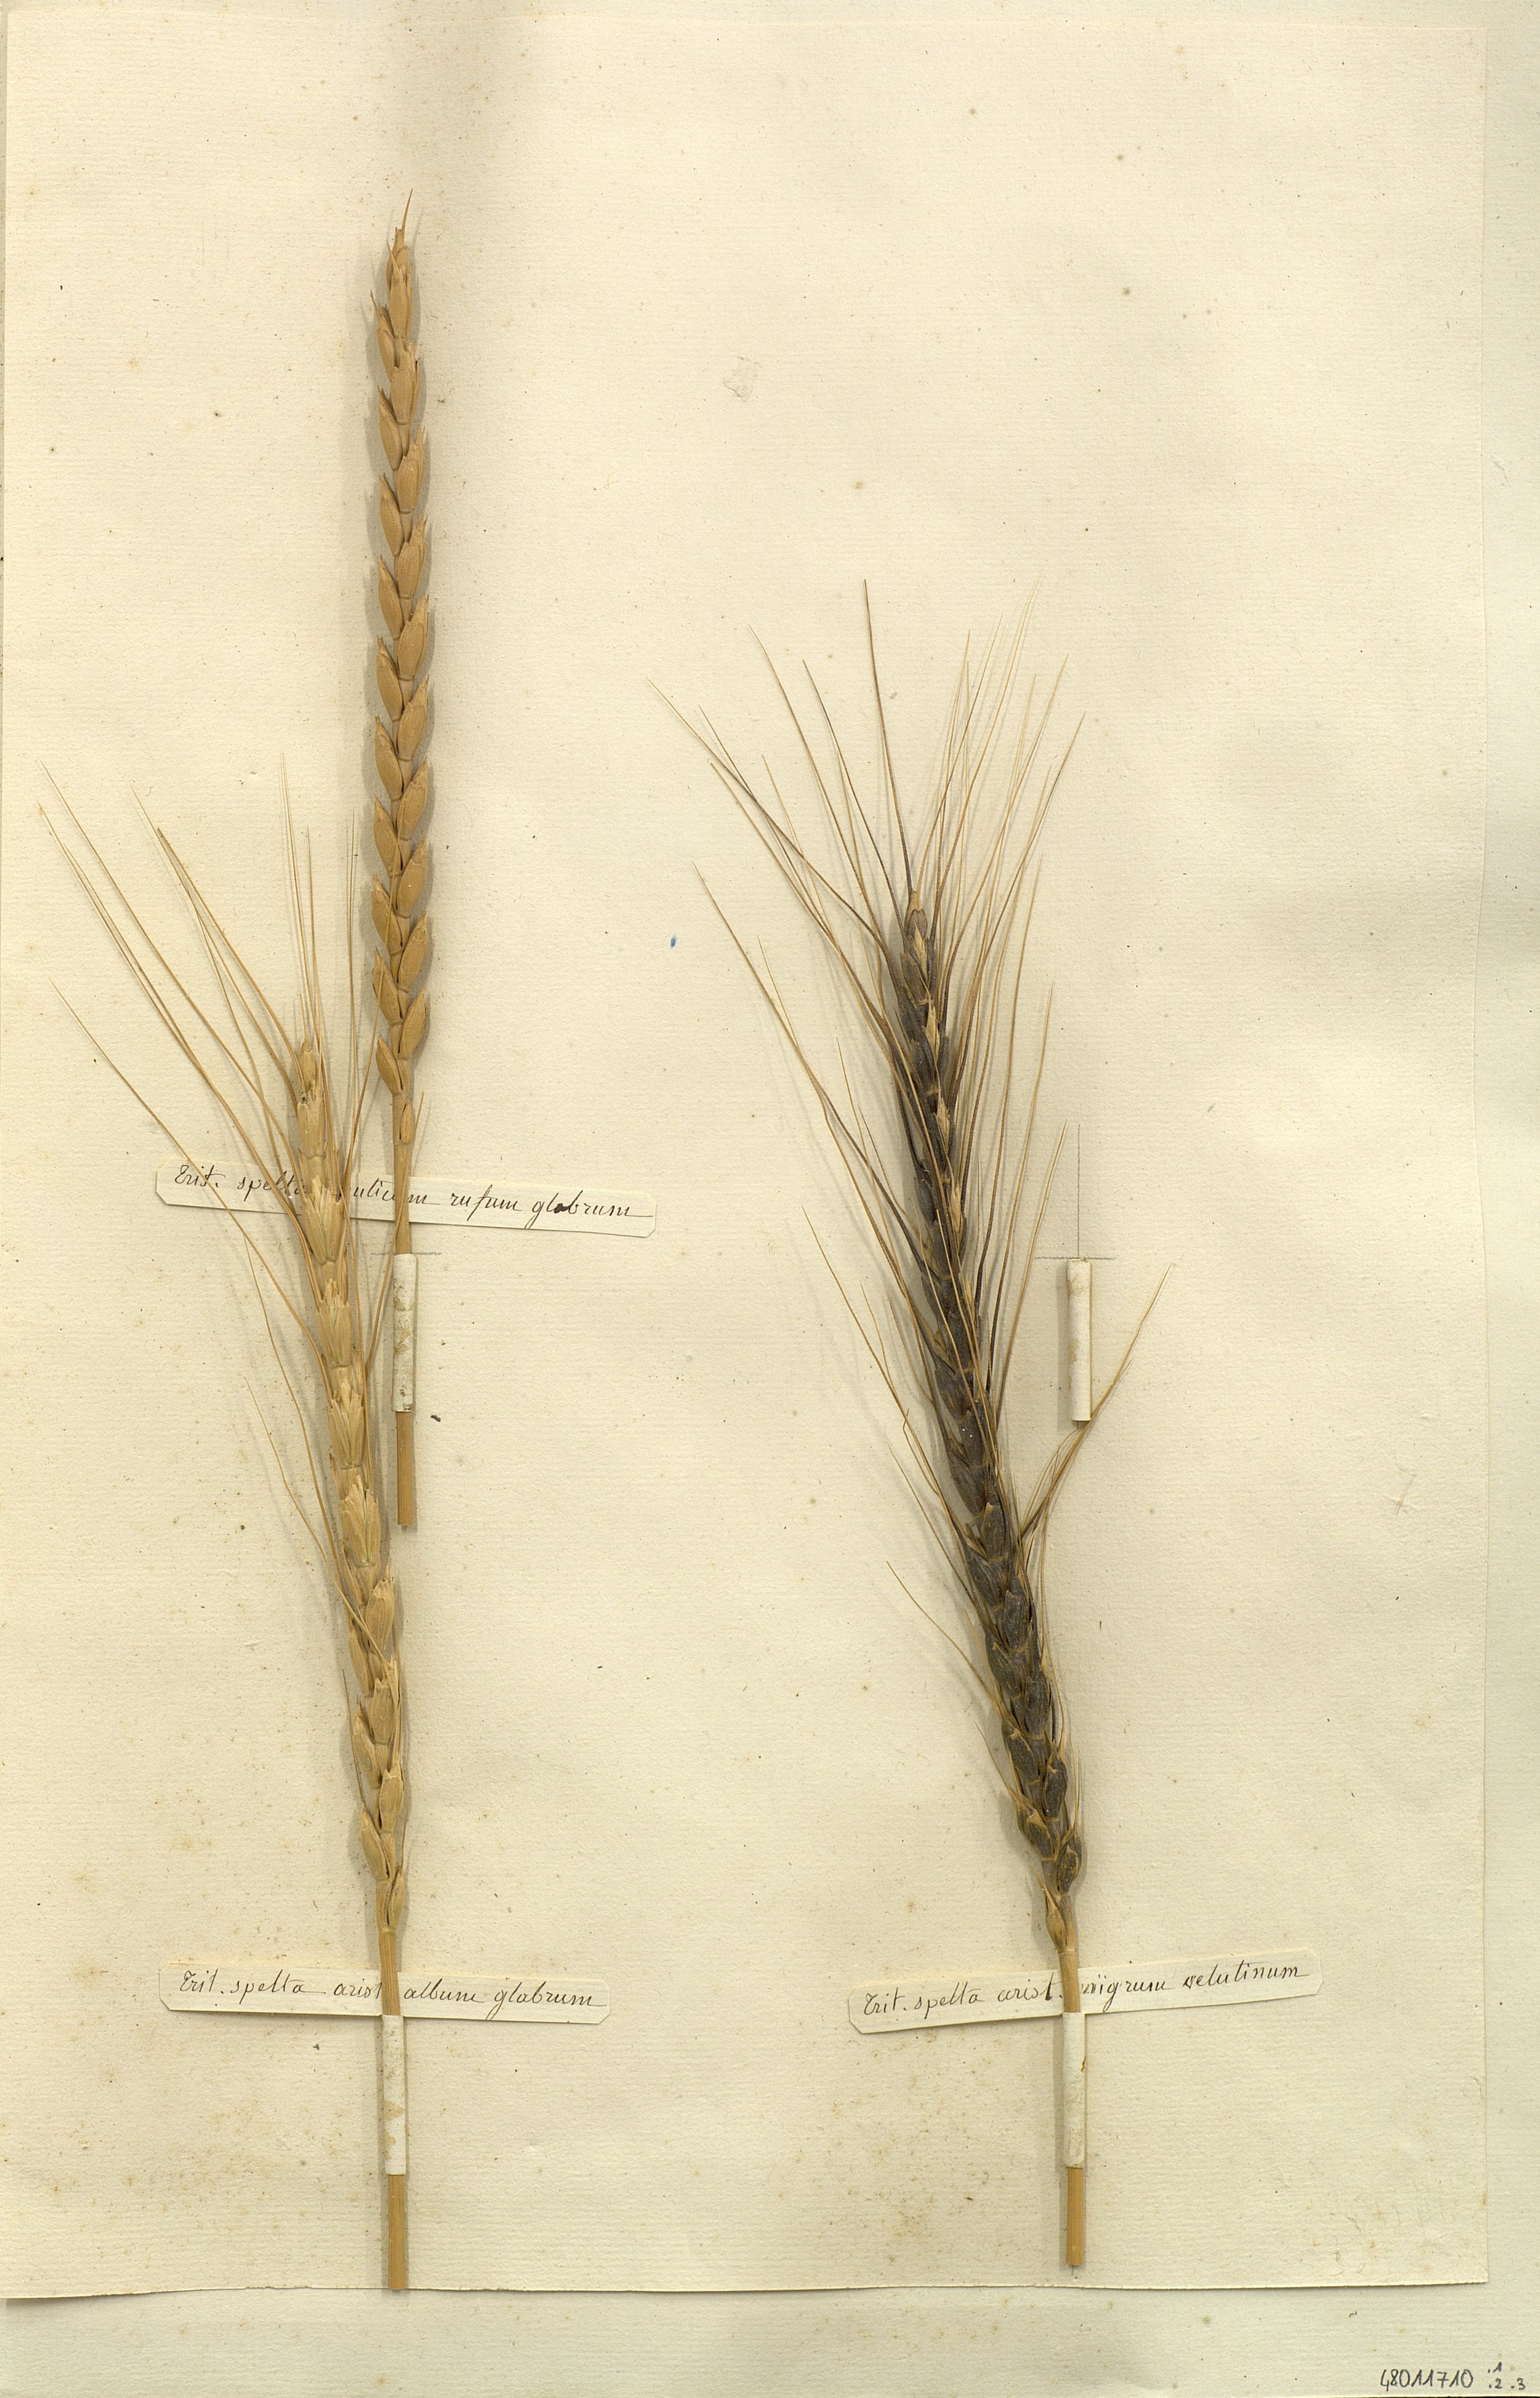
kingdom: Plantae
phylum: Tracheophyta
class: Liliopsida
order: Poales
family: Poaceae
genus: Triticum
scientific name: Triticum aestivum
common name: Common wheat
